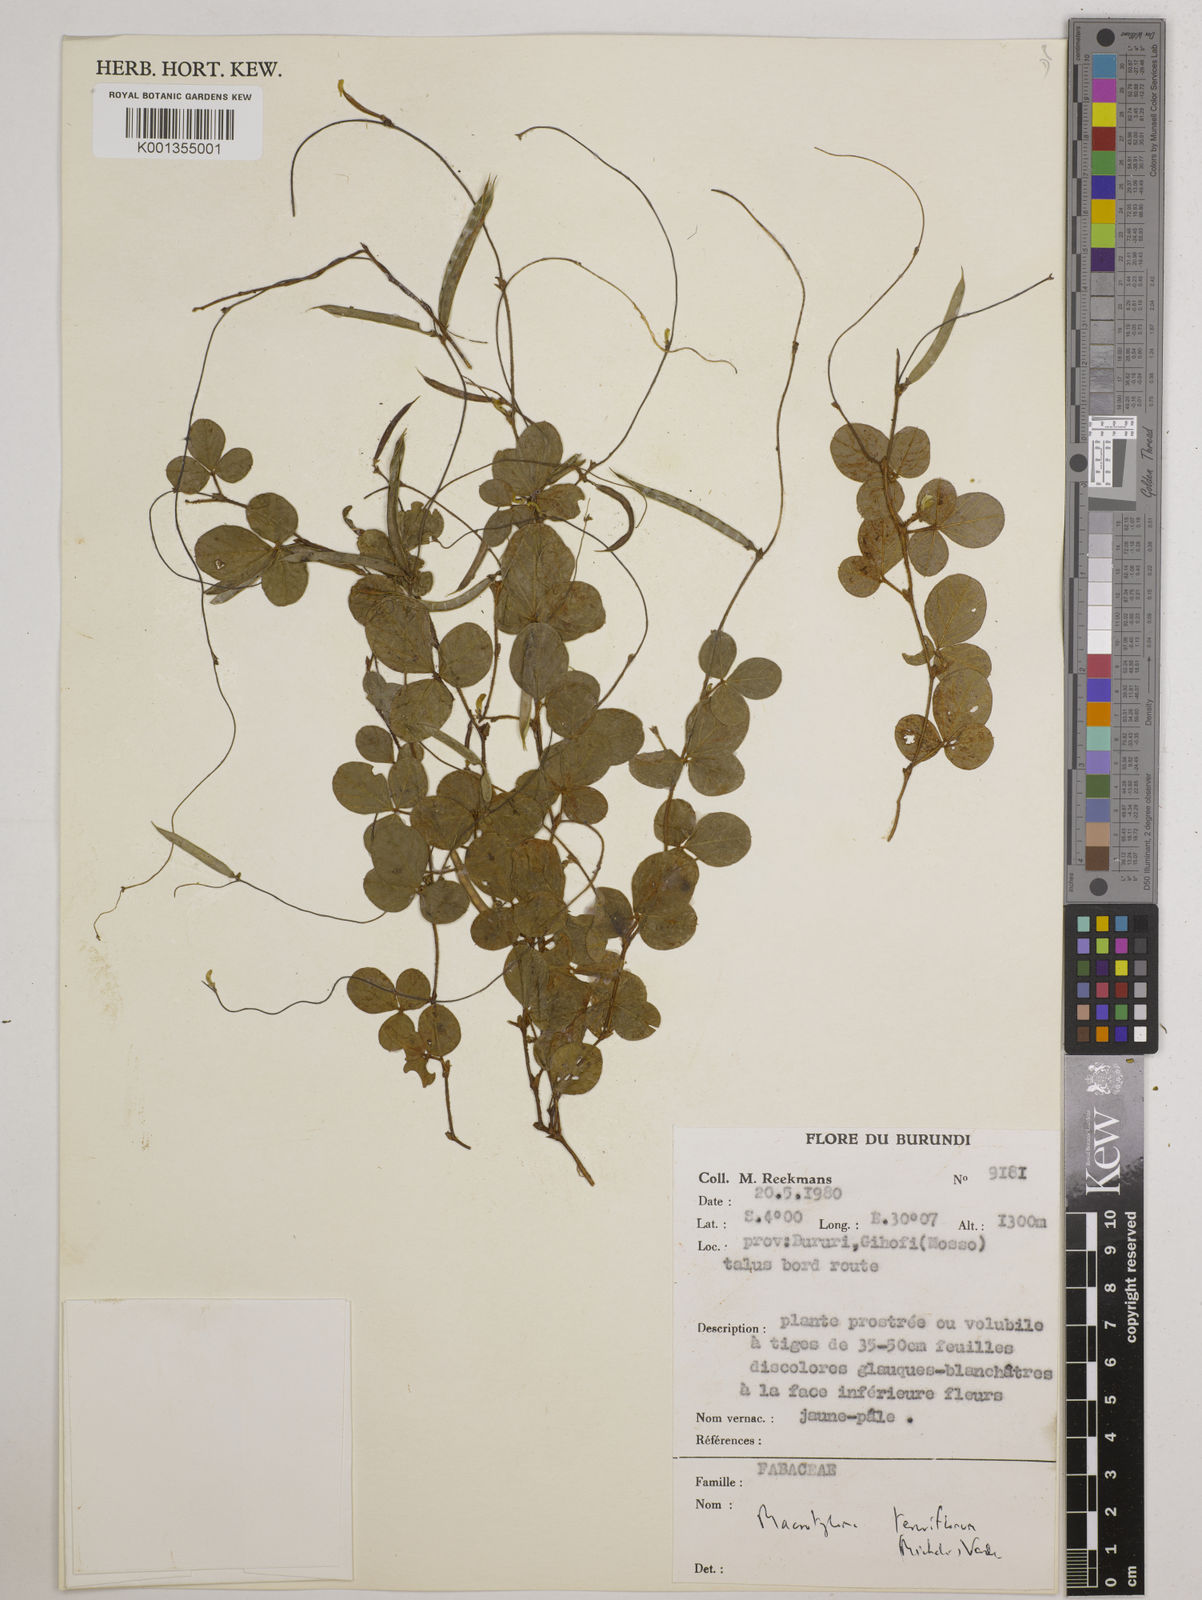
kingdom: Plantae
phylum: Tracheophyta
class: Magnoliopsida
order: Fabales
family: Fabaceae
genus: Macrotyloma
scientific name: Macrotyloma tenuiflorum
